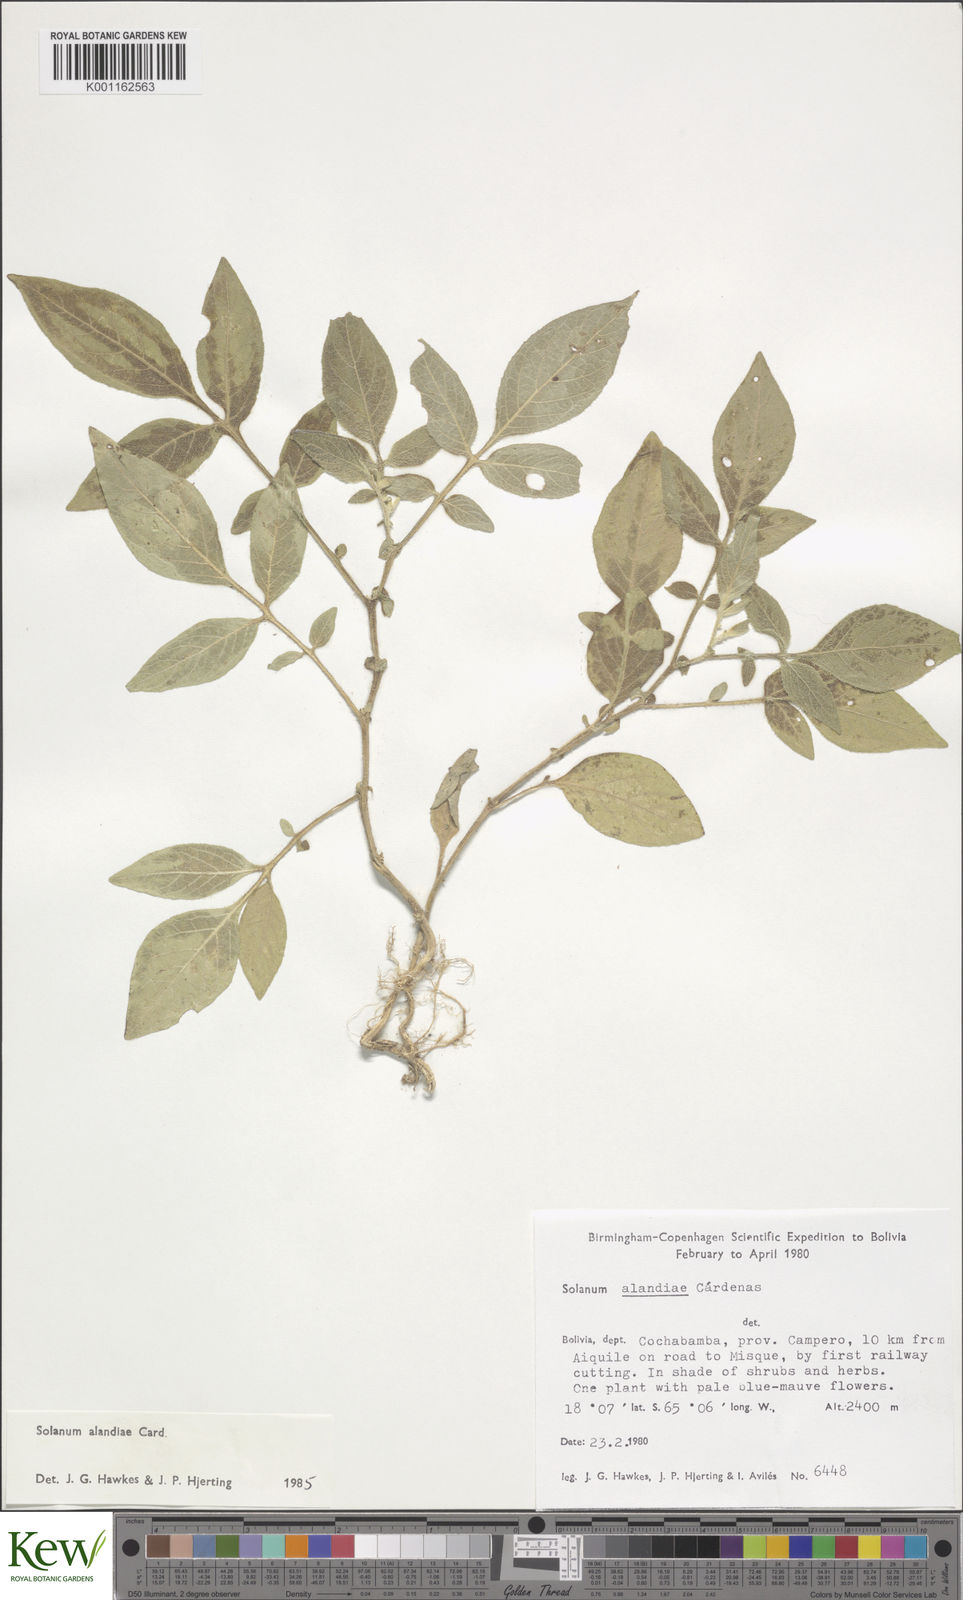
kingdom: Plantae
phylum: Tracheophyta
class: Magnoliopsida
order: Solanales
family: Solanaceae
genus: Solanum
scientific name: Solanum
